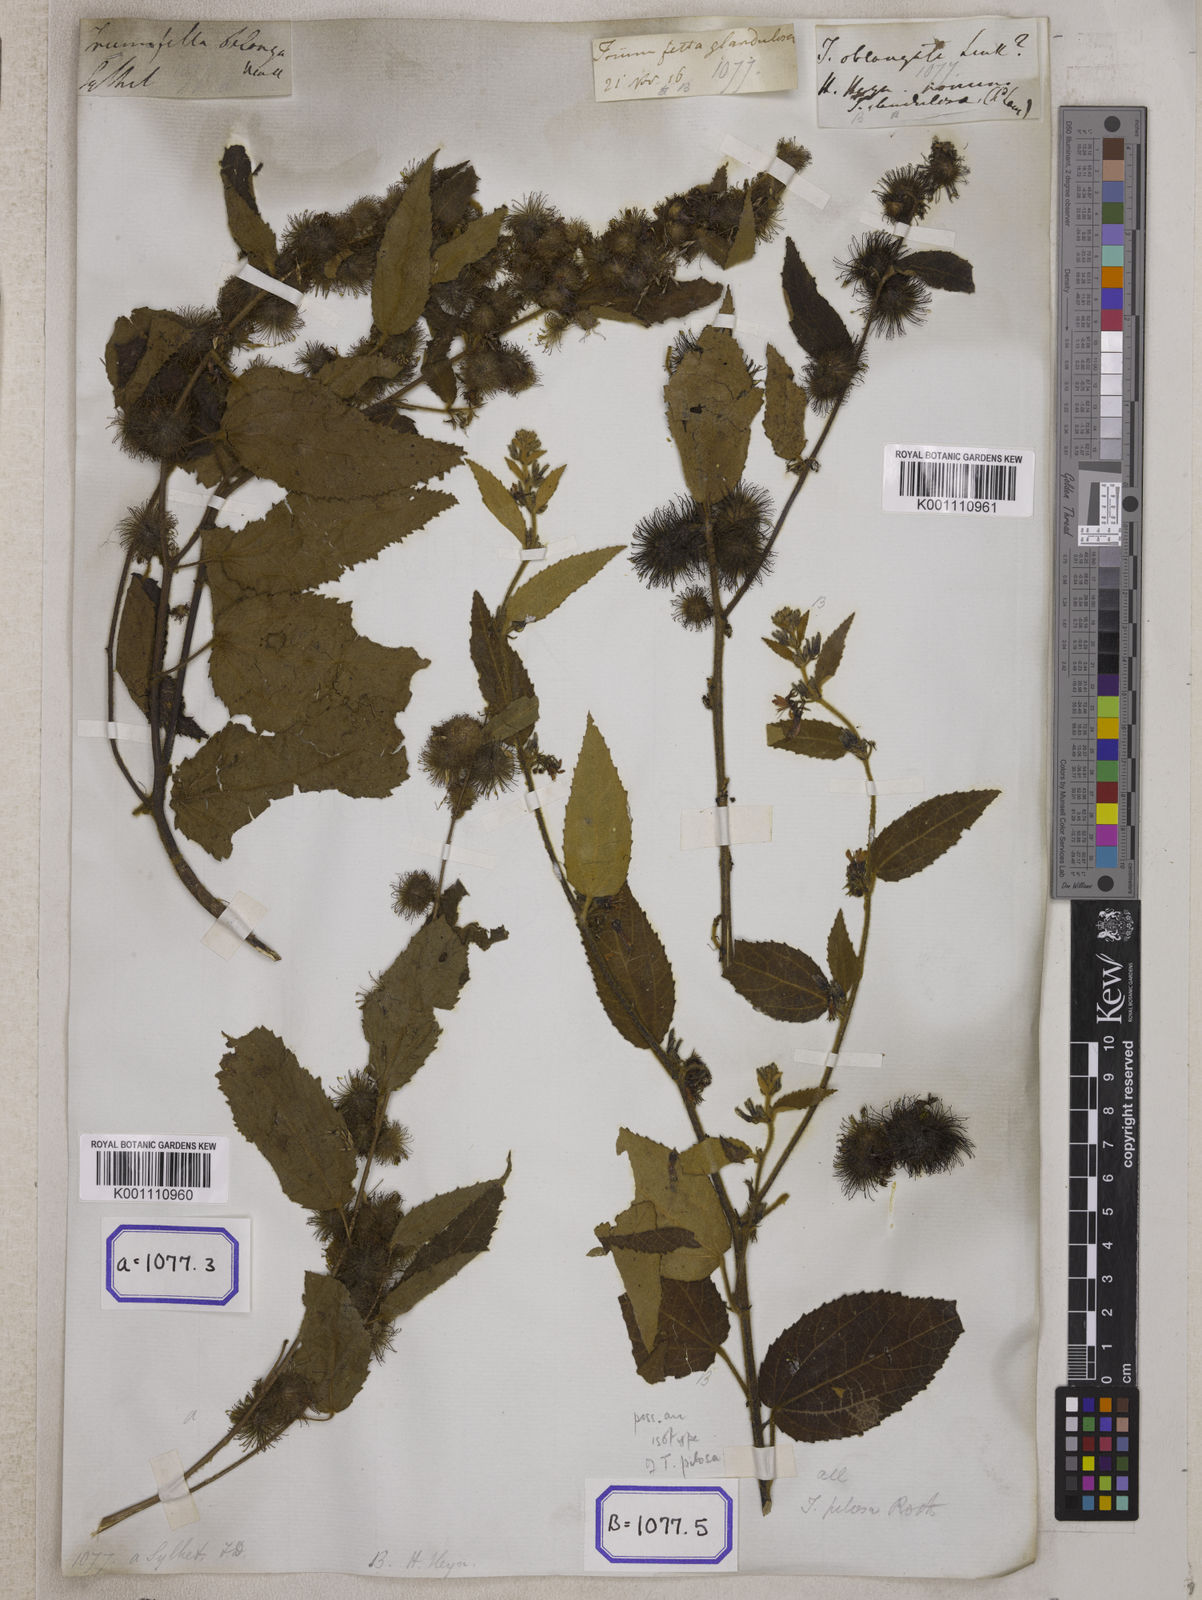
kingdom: Plantae
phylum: Tracheophyta
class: Magnoliopsida
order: Malvales
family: Malvaceae
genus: Triumfetta
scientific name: Triumfetta pilosa
